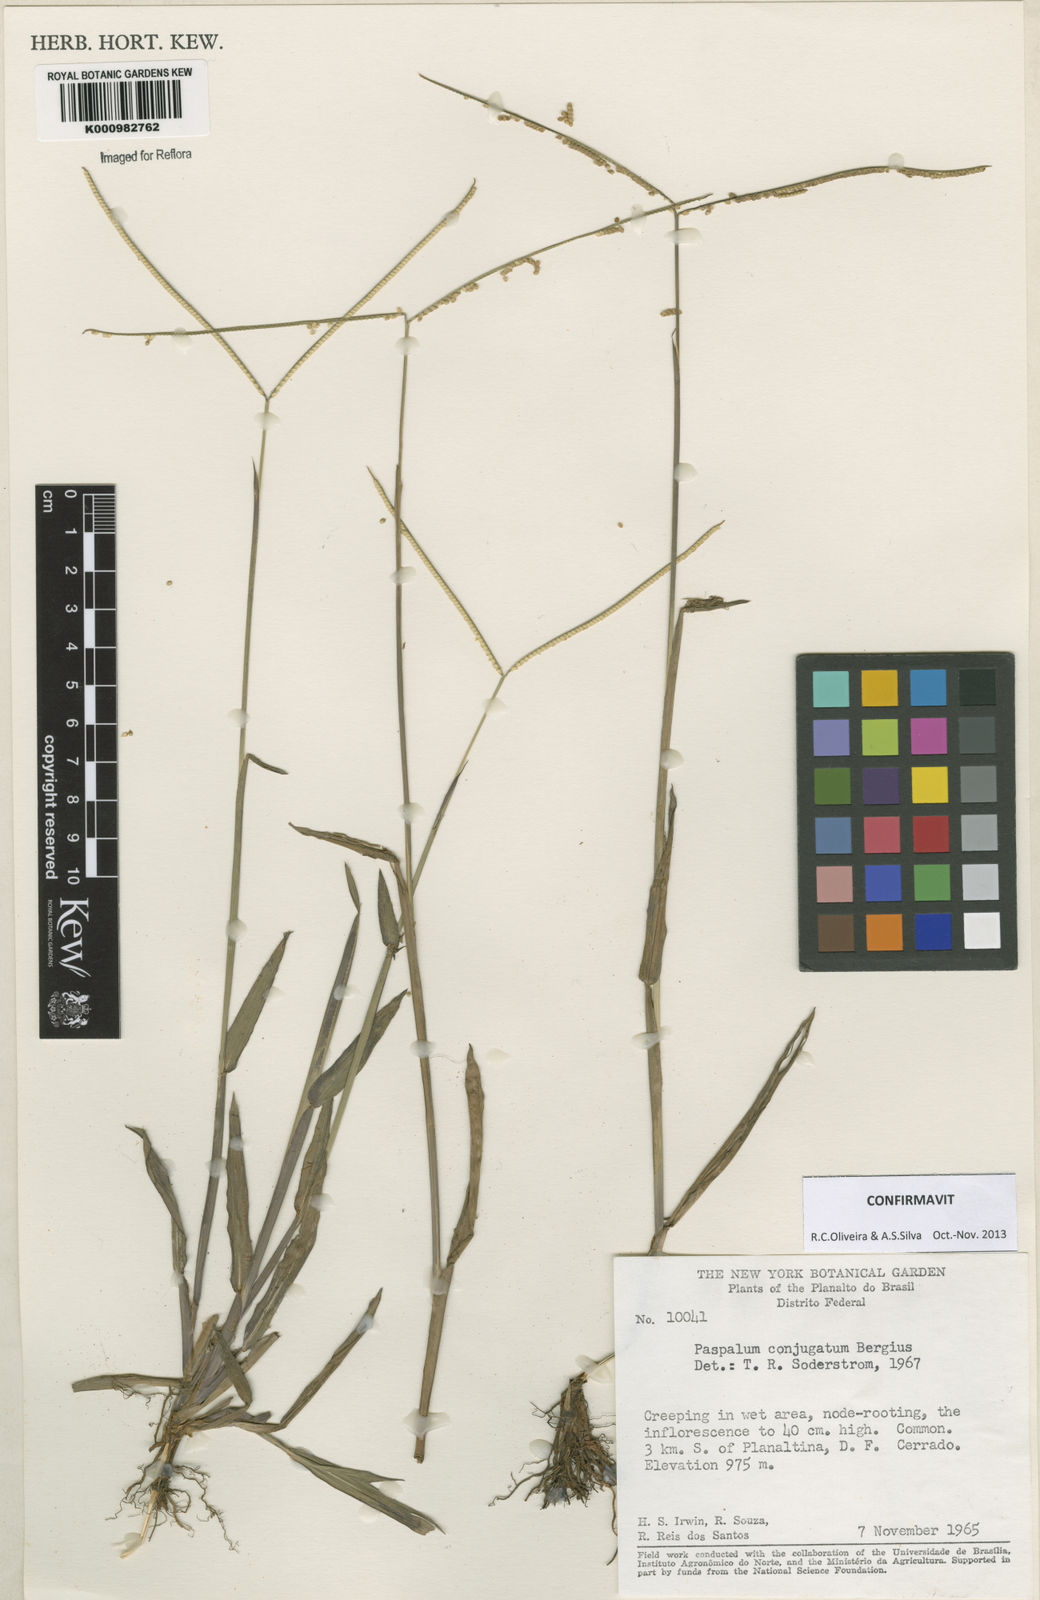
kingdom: Plantae
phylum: Tracheophyta
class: Liliopsida
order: Poales
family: Poaceae
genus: Paspalum
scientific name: Paspalum conjugatum
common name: Hilograss
